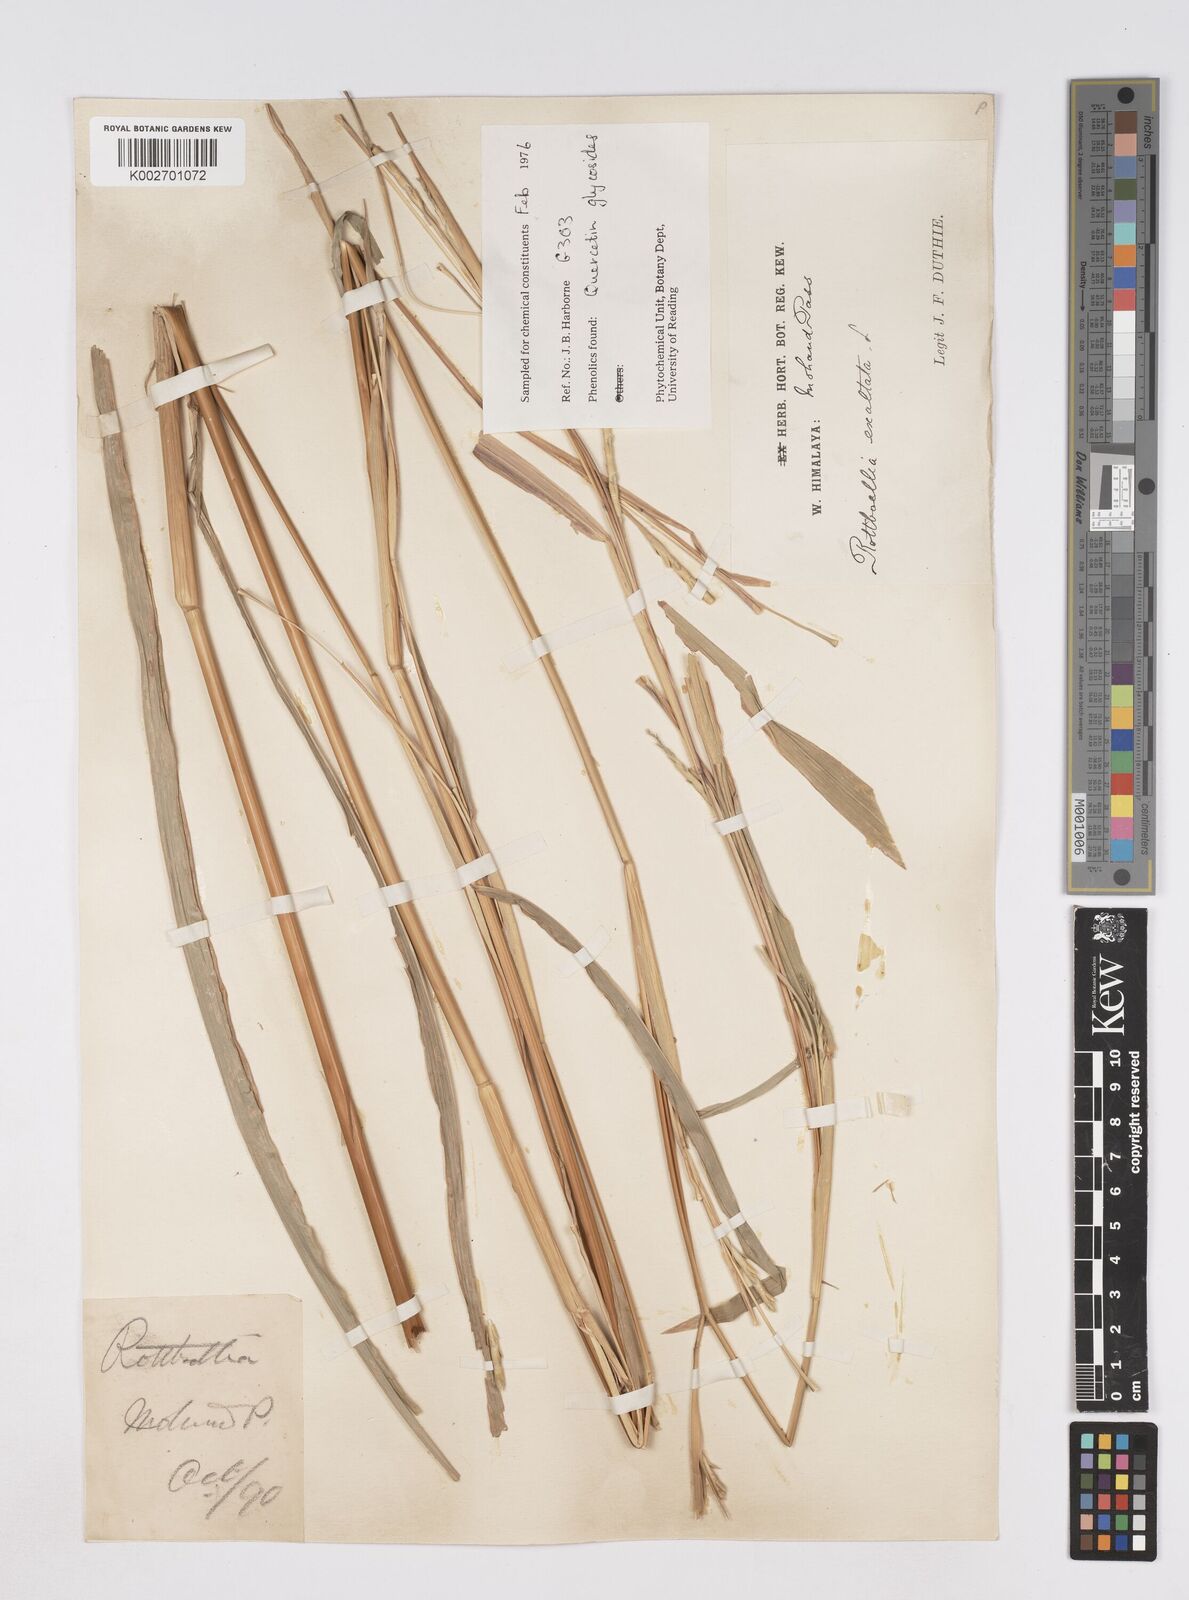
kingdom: Plantae
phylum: Tracheophyta
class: Liliopsida
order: Poales
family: Poaceae
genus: Ophiuros
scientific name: Ophiuros exaltatus
